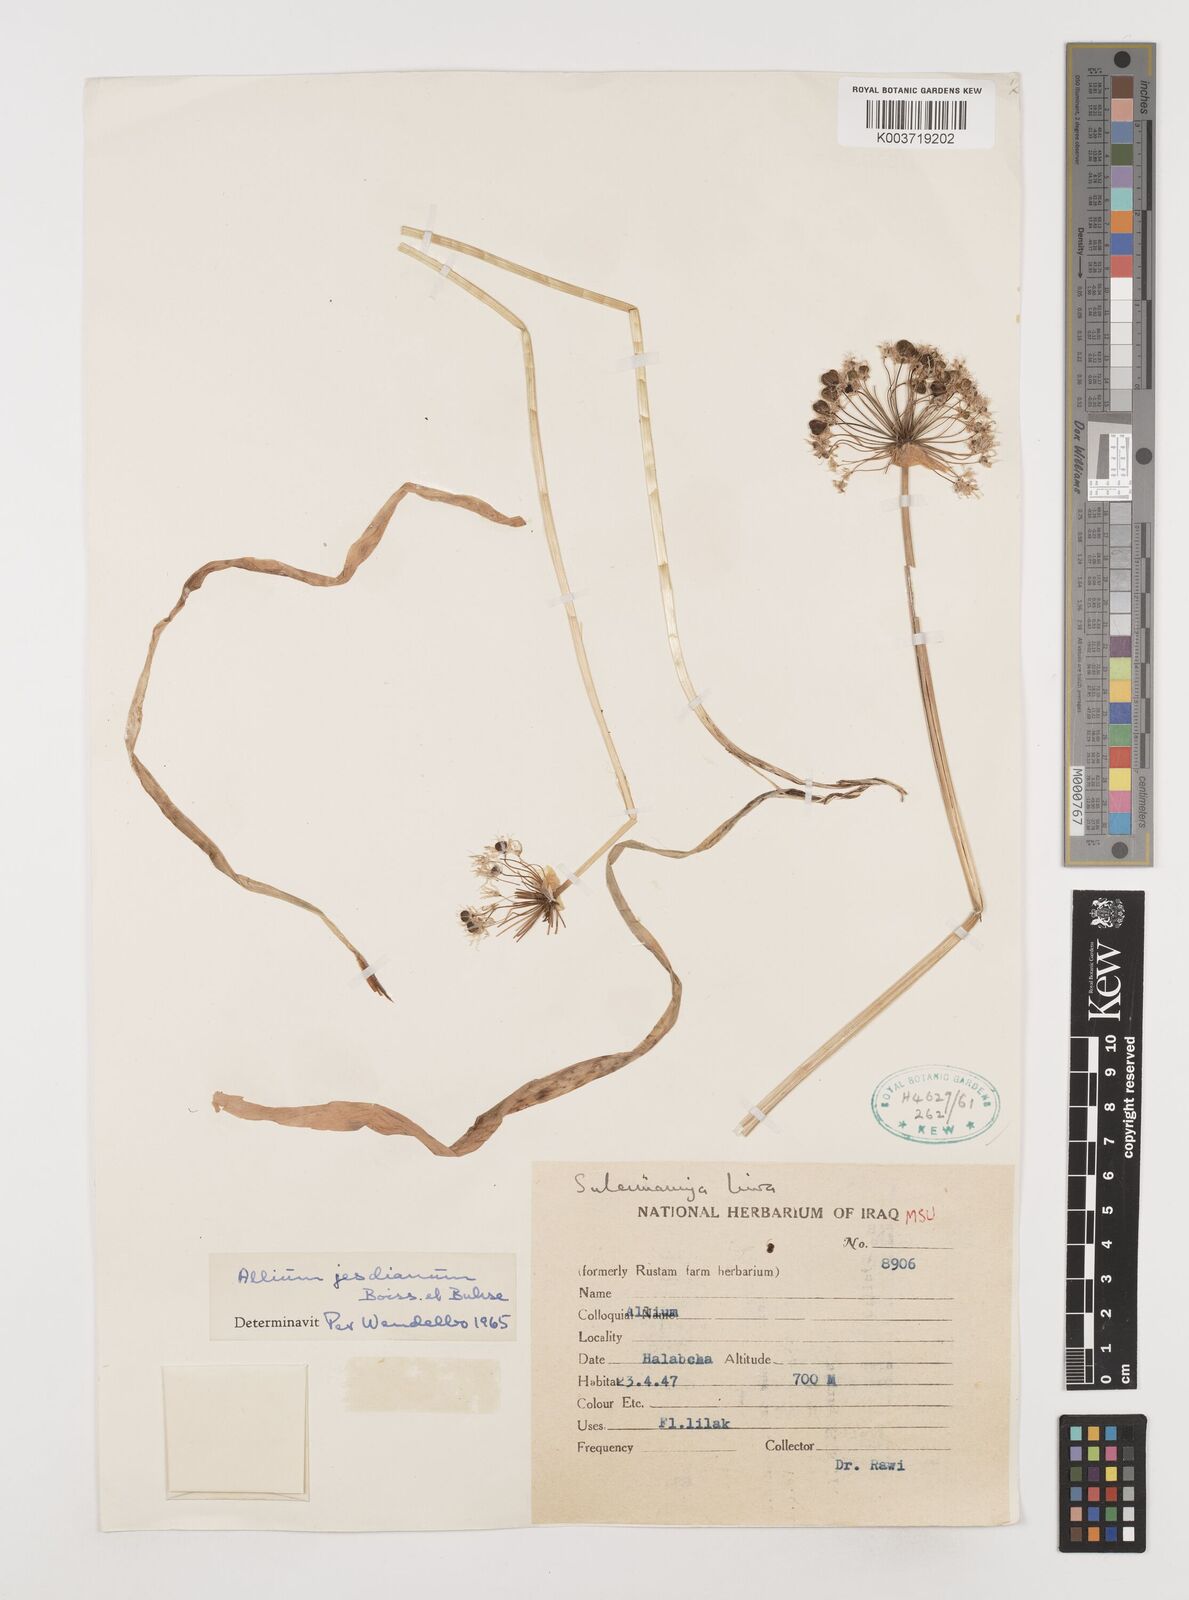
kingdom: Plantae
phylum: Tracheophyta
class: Liliopsida
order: Asparagales
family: Amaryllidaceae
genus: Allium
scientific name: Allium jesdianum
